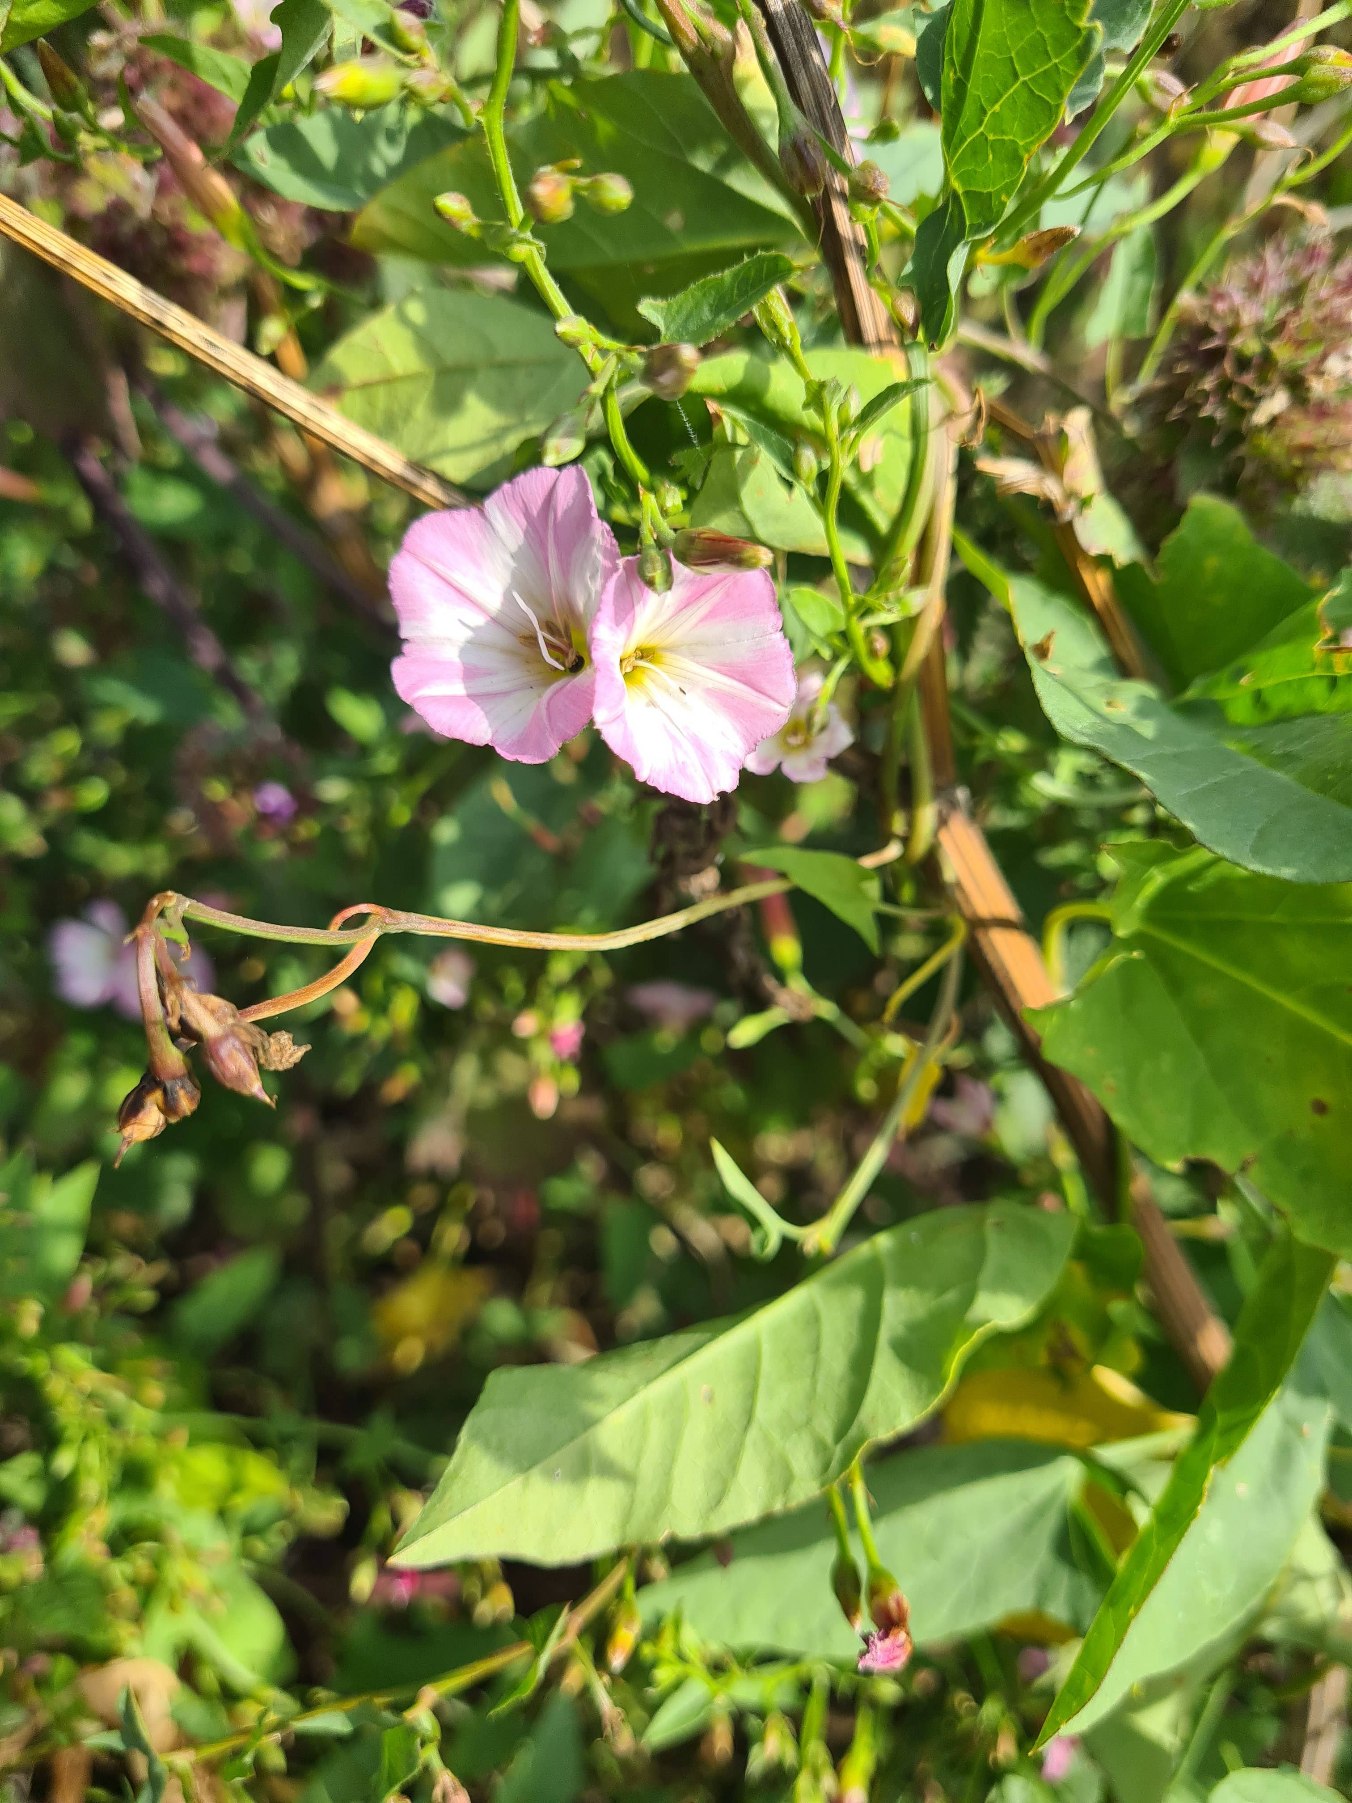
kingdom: Plantae
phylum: Tracheophyta
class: Magnoliopsida
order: Solanales
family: Convolvulaceae
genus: Convolvulus
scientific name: Convolvulus arvensis
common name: Ager-snerle
